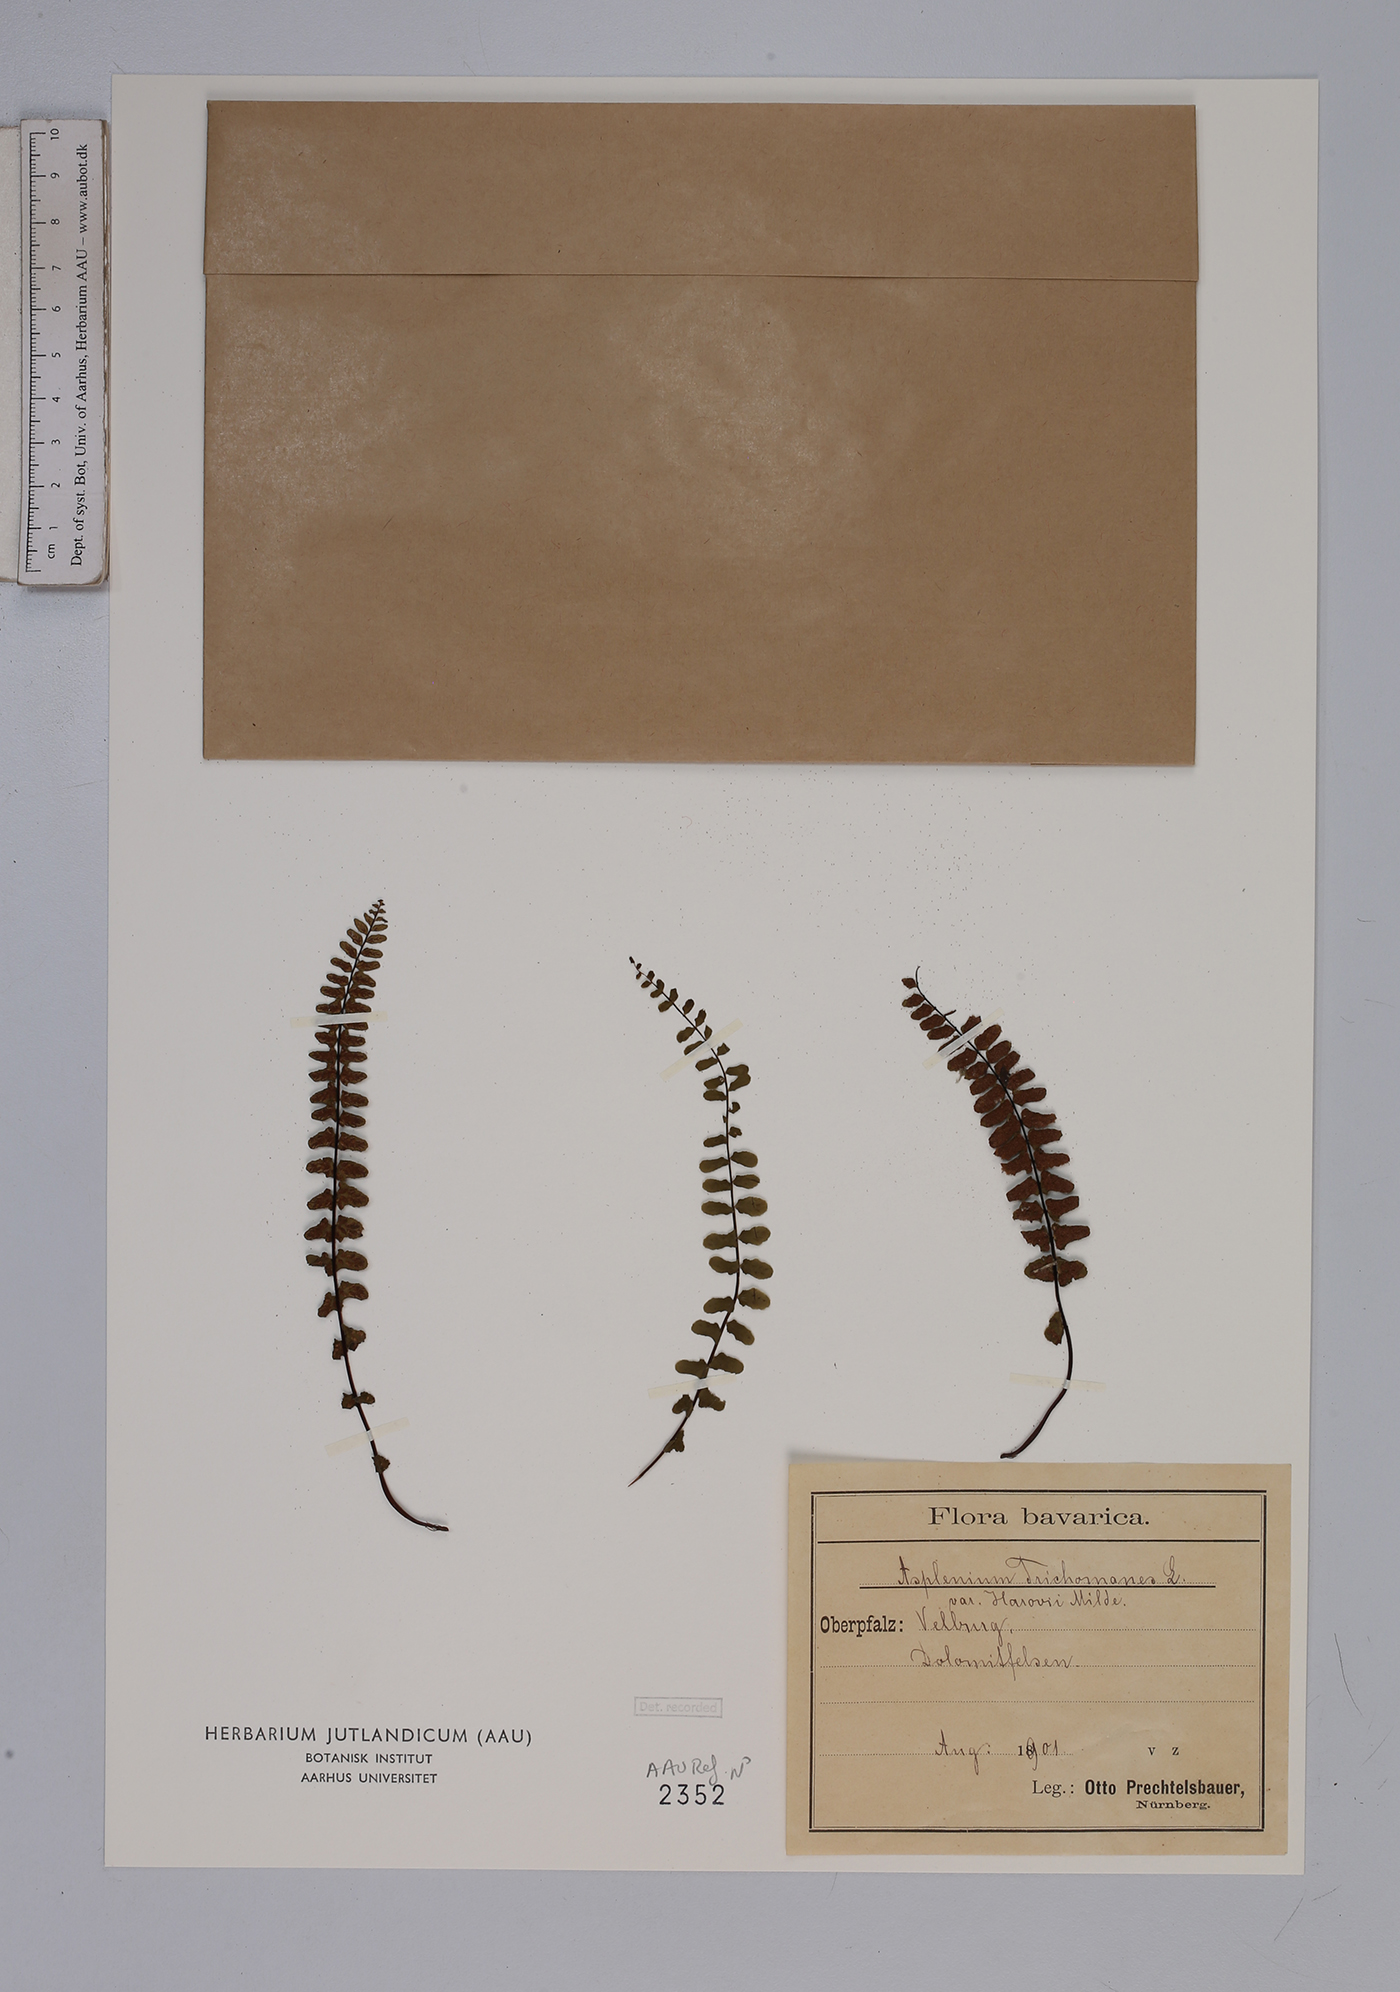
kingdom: Plantae
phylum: Tracheophyta
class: Polypodiopsida
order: Polypodiales
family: Aspleniaceae
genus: Asplenium
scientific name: Asplenium trichomanes
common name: Maidenhair spleenwort
